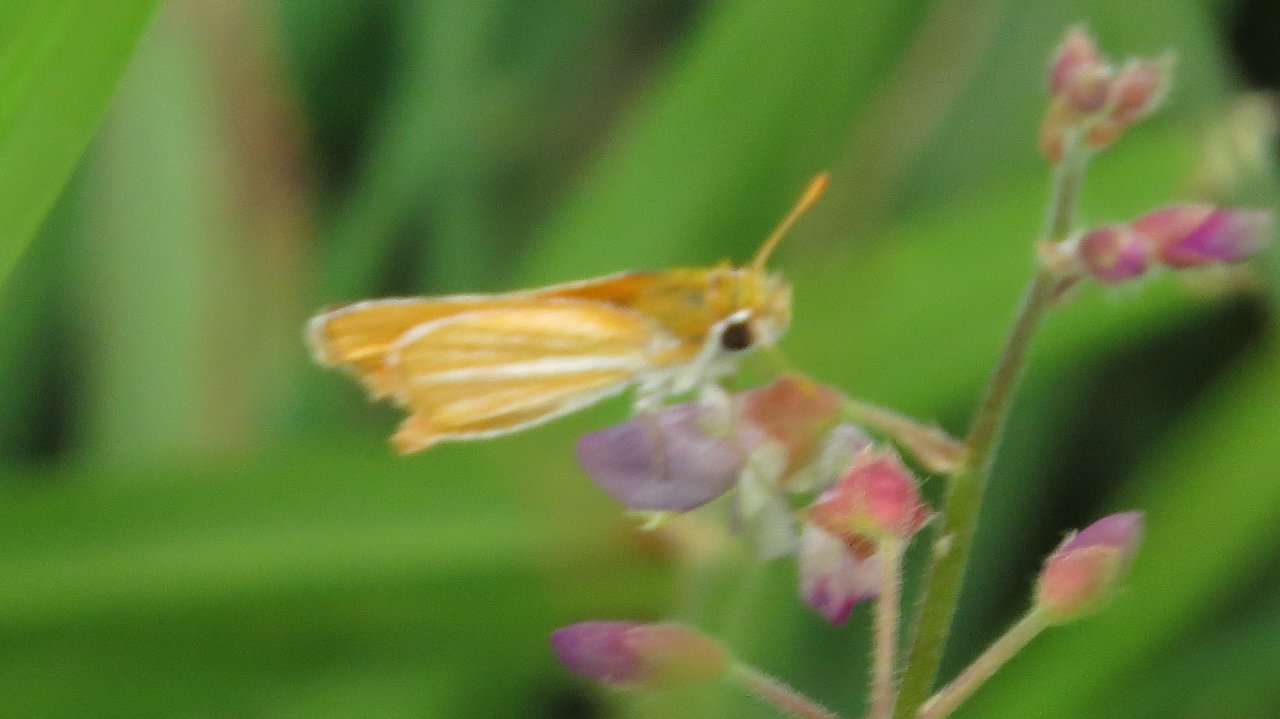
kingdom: Animalia
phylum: Arthropoda
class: Insecta
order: Lepidoptera
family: Hesperiidae
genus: Copaeodes
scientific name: Copaeodes minima
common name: Southern Skipperling
